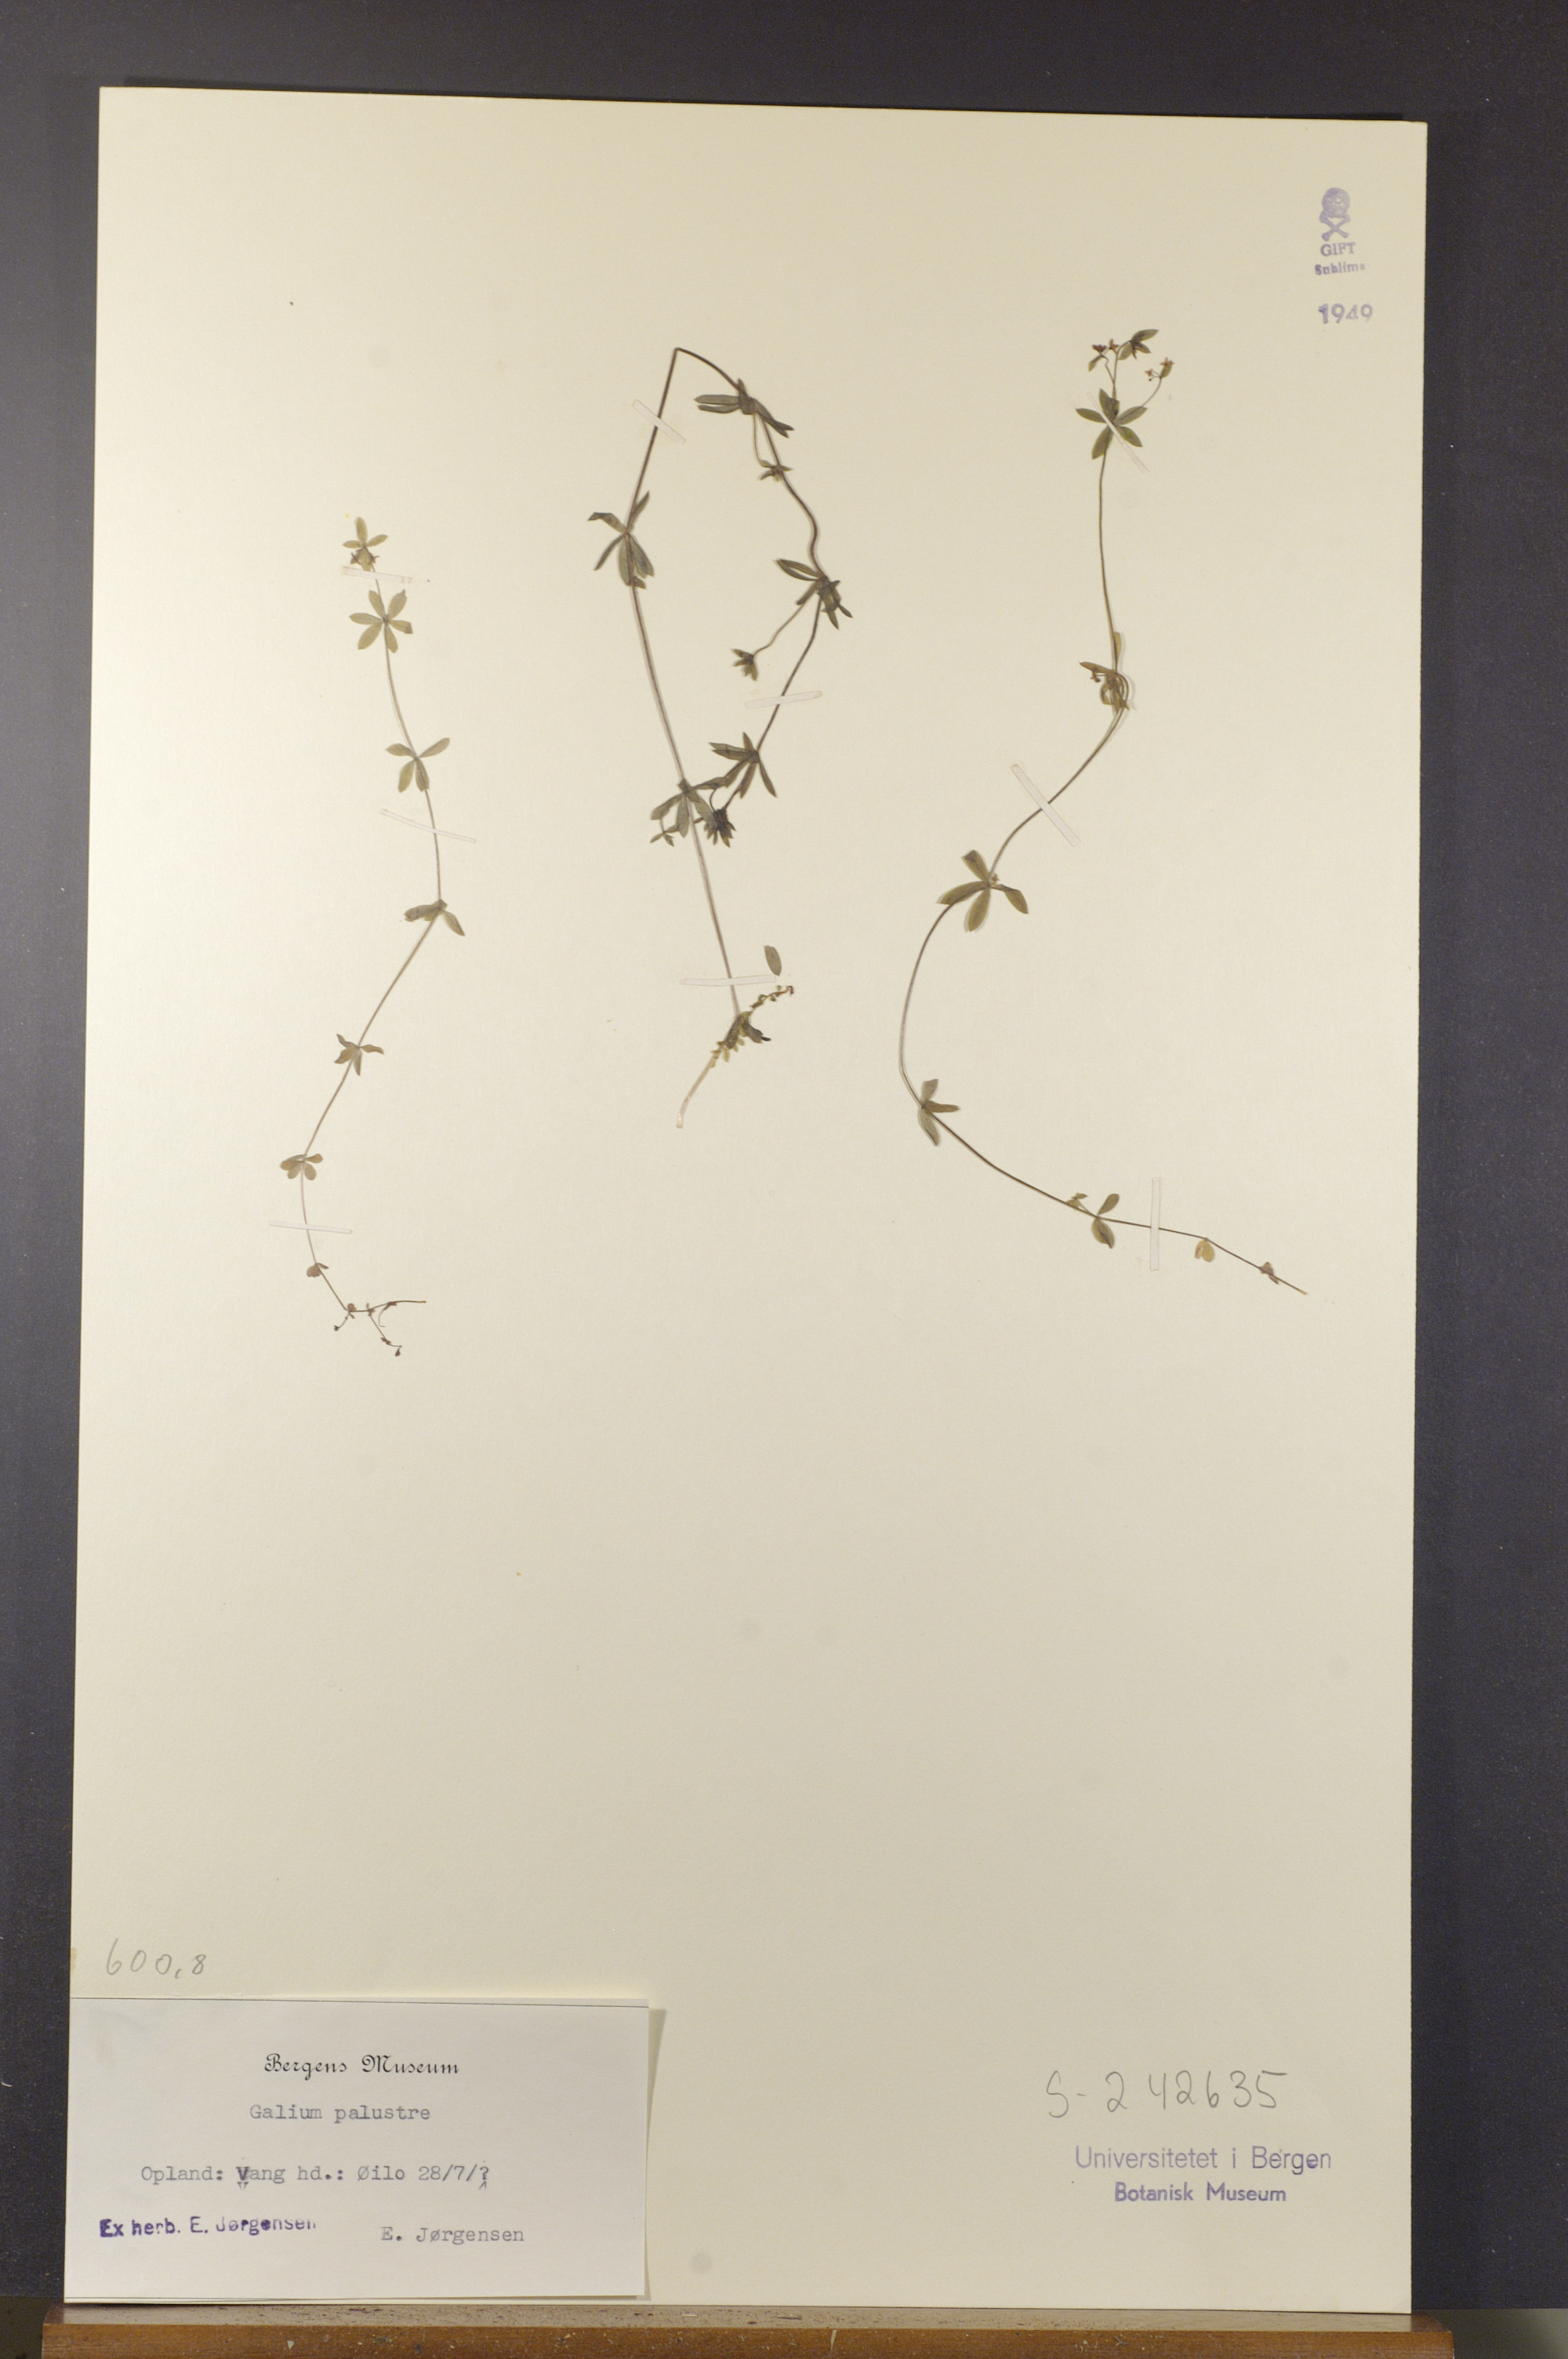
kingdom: Plantae
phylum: Tracheophyta
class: Magnoliopsida
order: Gentianales
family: Rubiaceae
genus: Galium
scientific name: Galium palustre
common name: Common marsh-bedstraw
